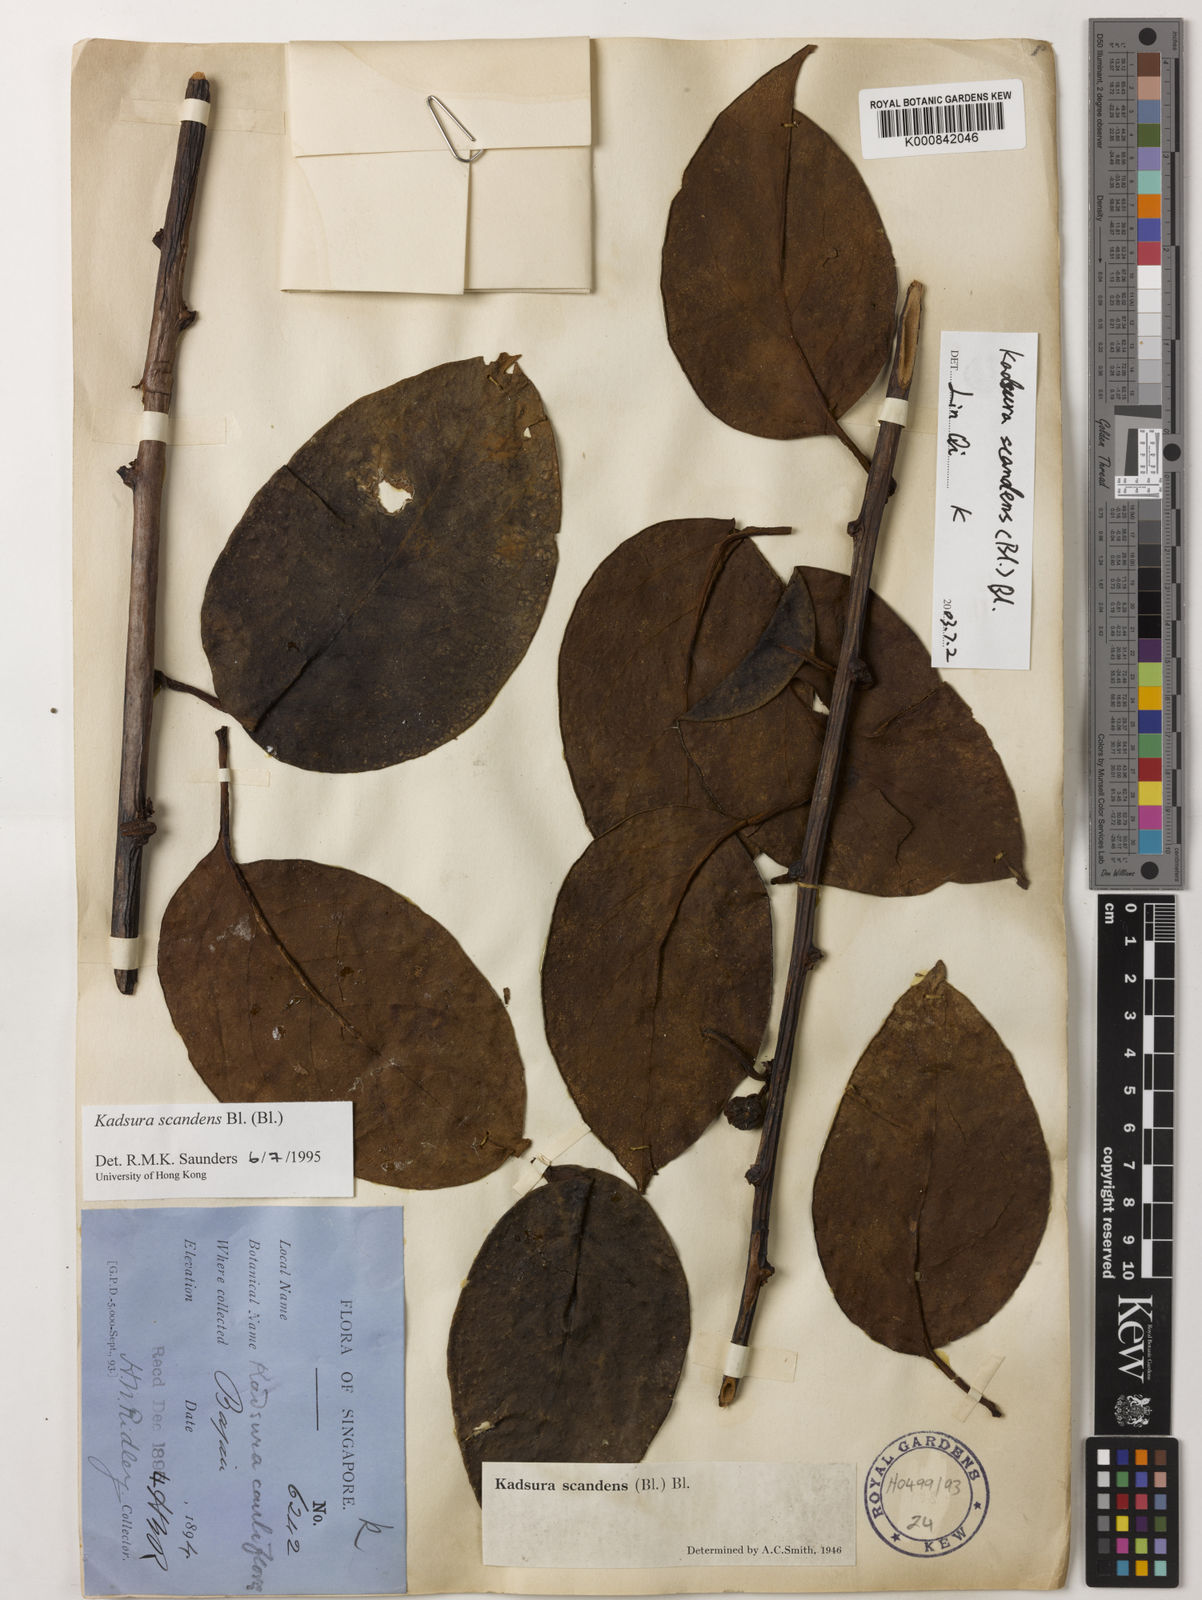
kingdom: Plantae
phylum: Tracheophyta
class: Magnoliopsida
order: Austrobaileyales
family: Schisandraceae
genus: Kadsura
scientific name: Kadsura scandens
